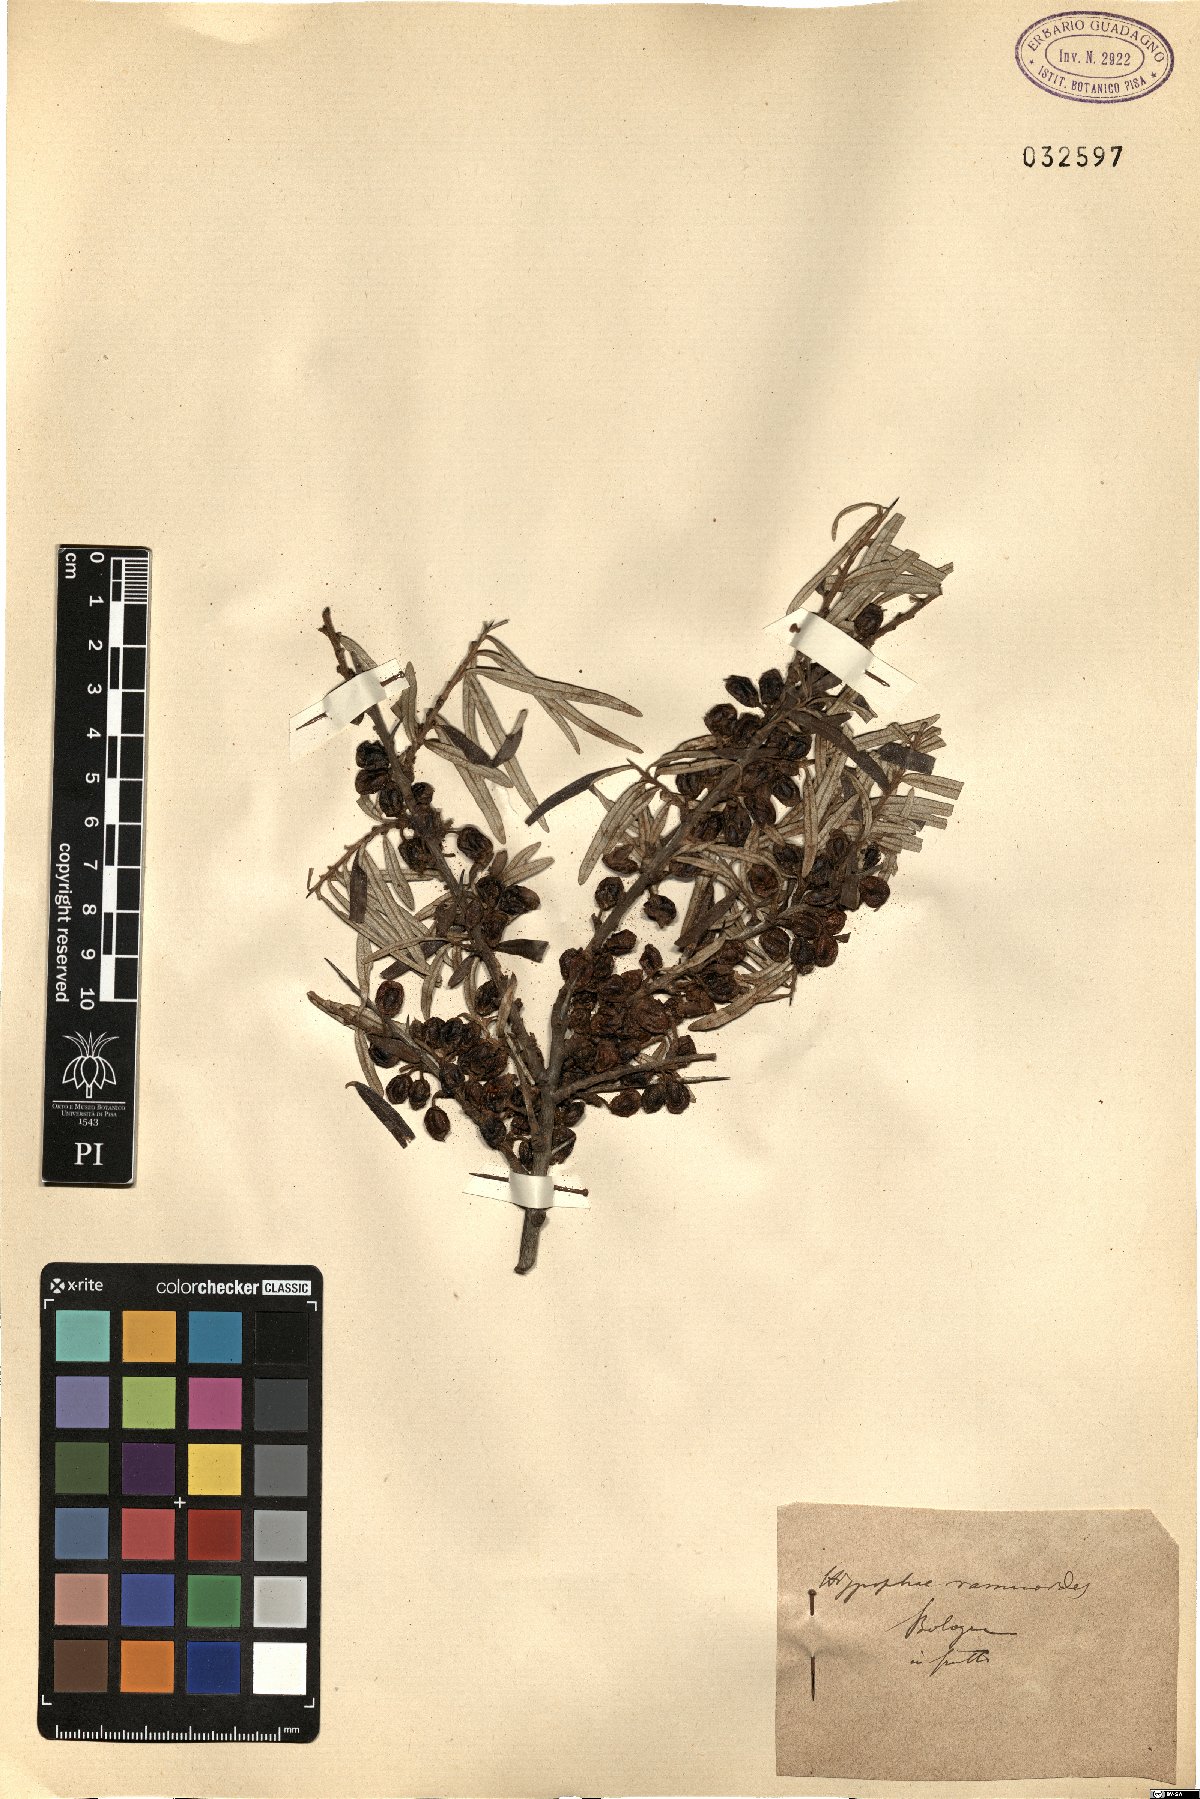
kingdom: Plantae
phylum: Tracheophyta
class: Magnoliopsida
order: Rosales
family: Elaeagnaceae
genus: Hippophae
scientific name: Hippophae rhamnoides
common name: Sea-buckthorn
